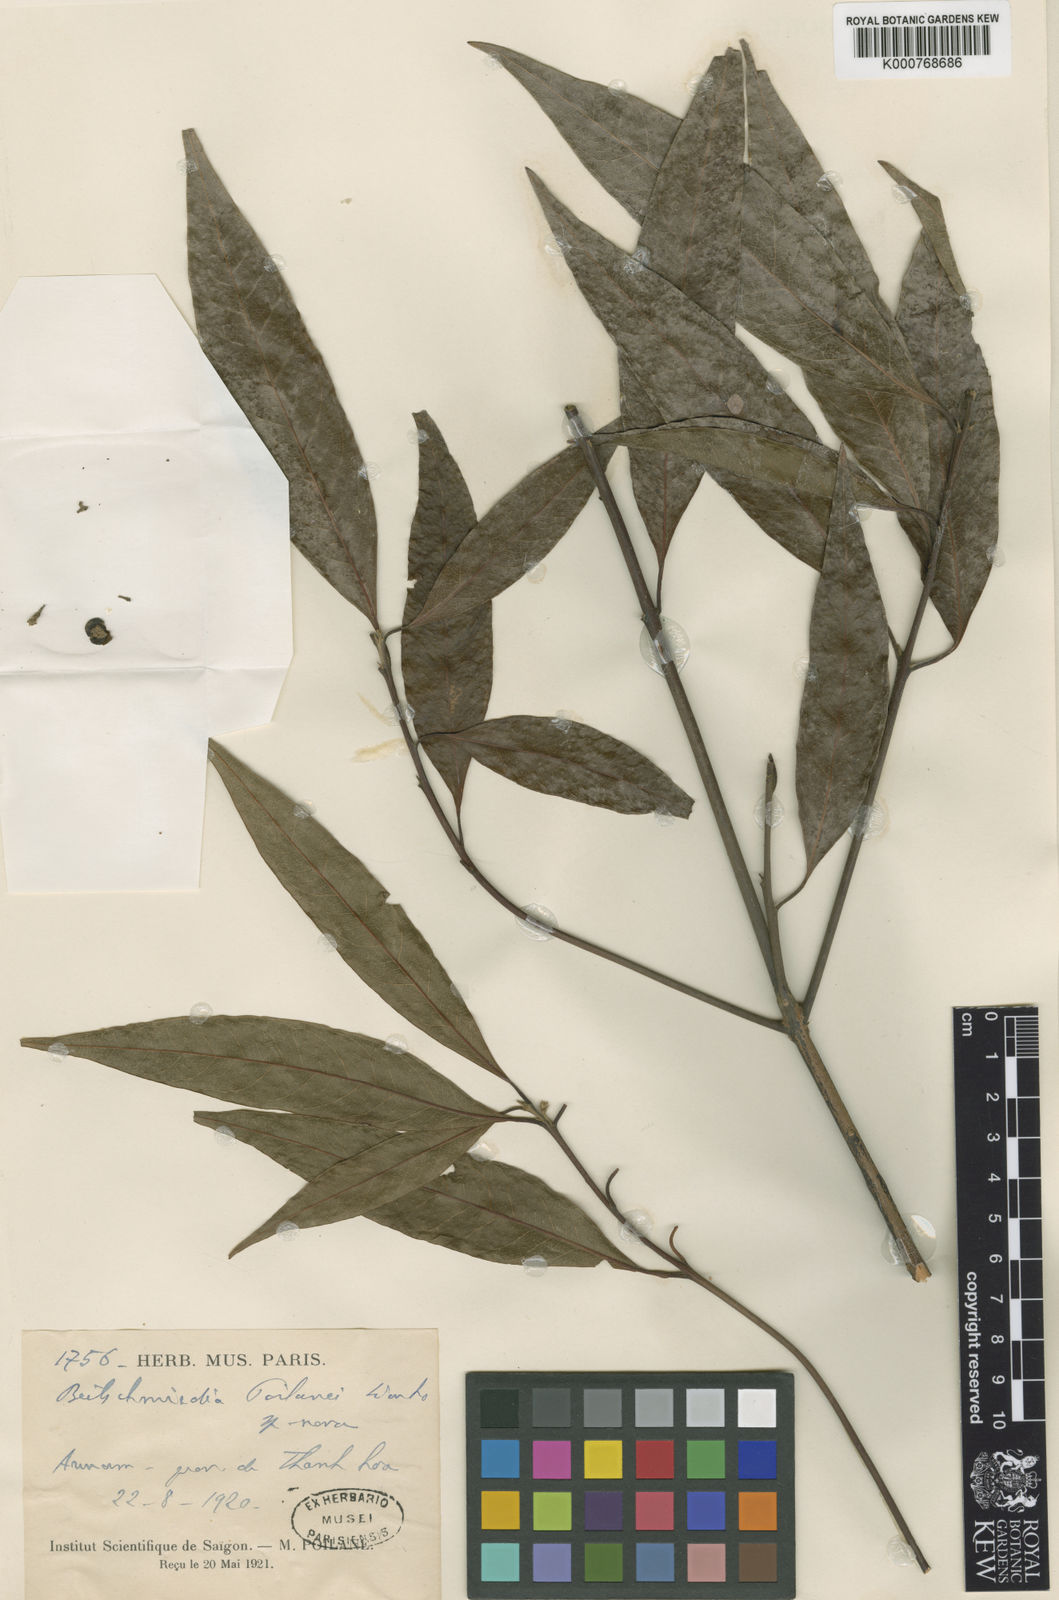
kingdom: Plantae
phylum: Tracheophyta
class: Magnoliopsida
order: Laurales
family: Lauraceae
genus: Beilschmiedia
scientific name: Beilschmiedia
